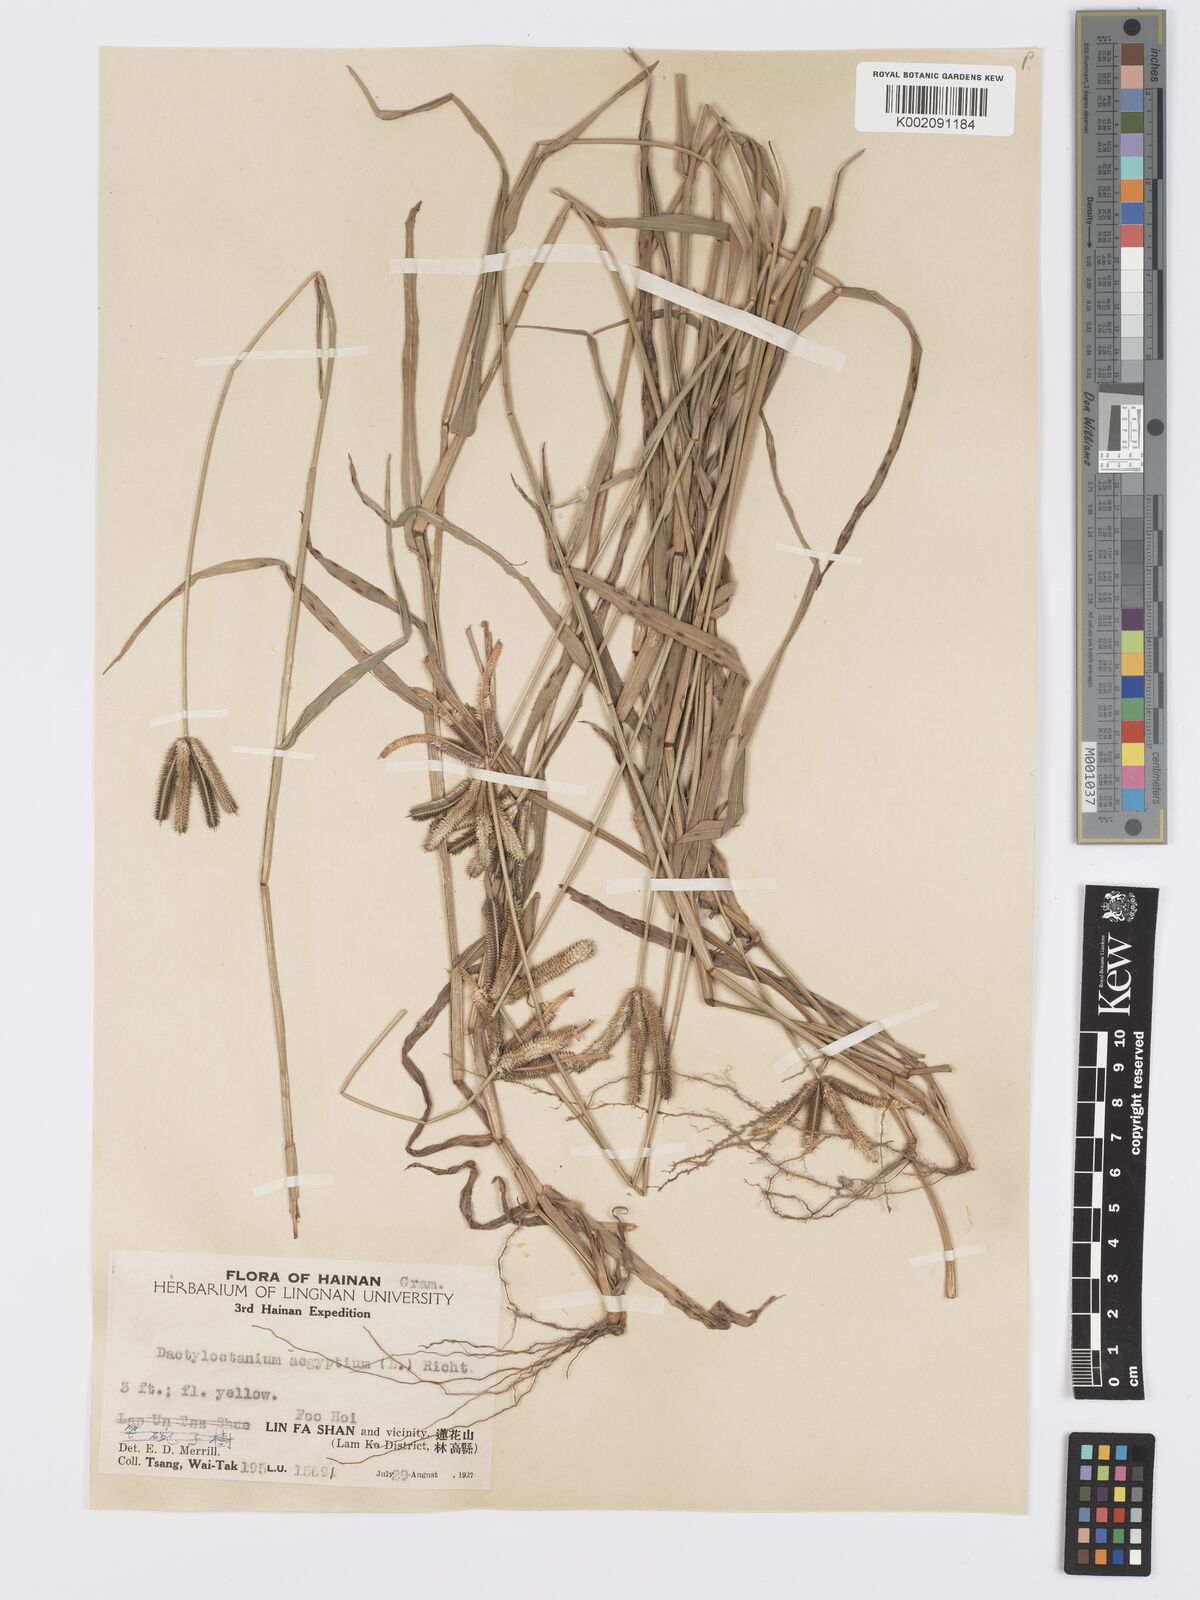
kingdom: Plantae
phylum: Tracheophyta
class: Liliopsida
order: Poales
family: Poaceae
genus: Dactyloctenium
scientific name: Dactyloctenium aegyptium
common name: Egyptian grass
